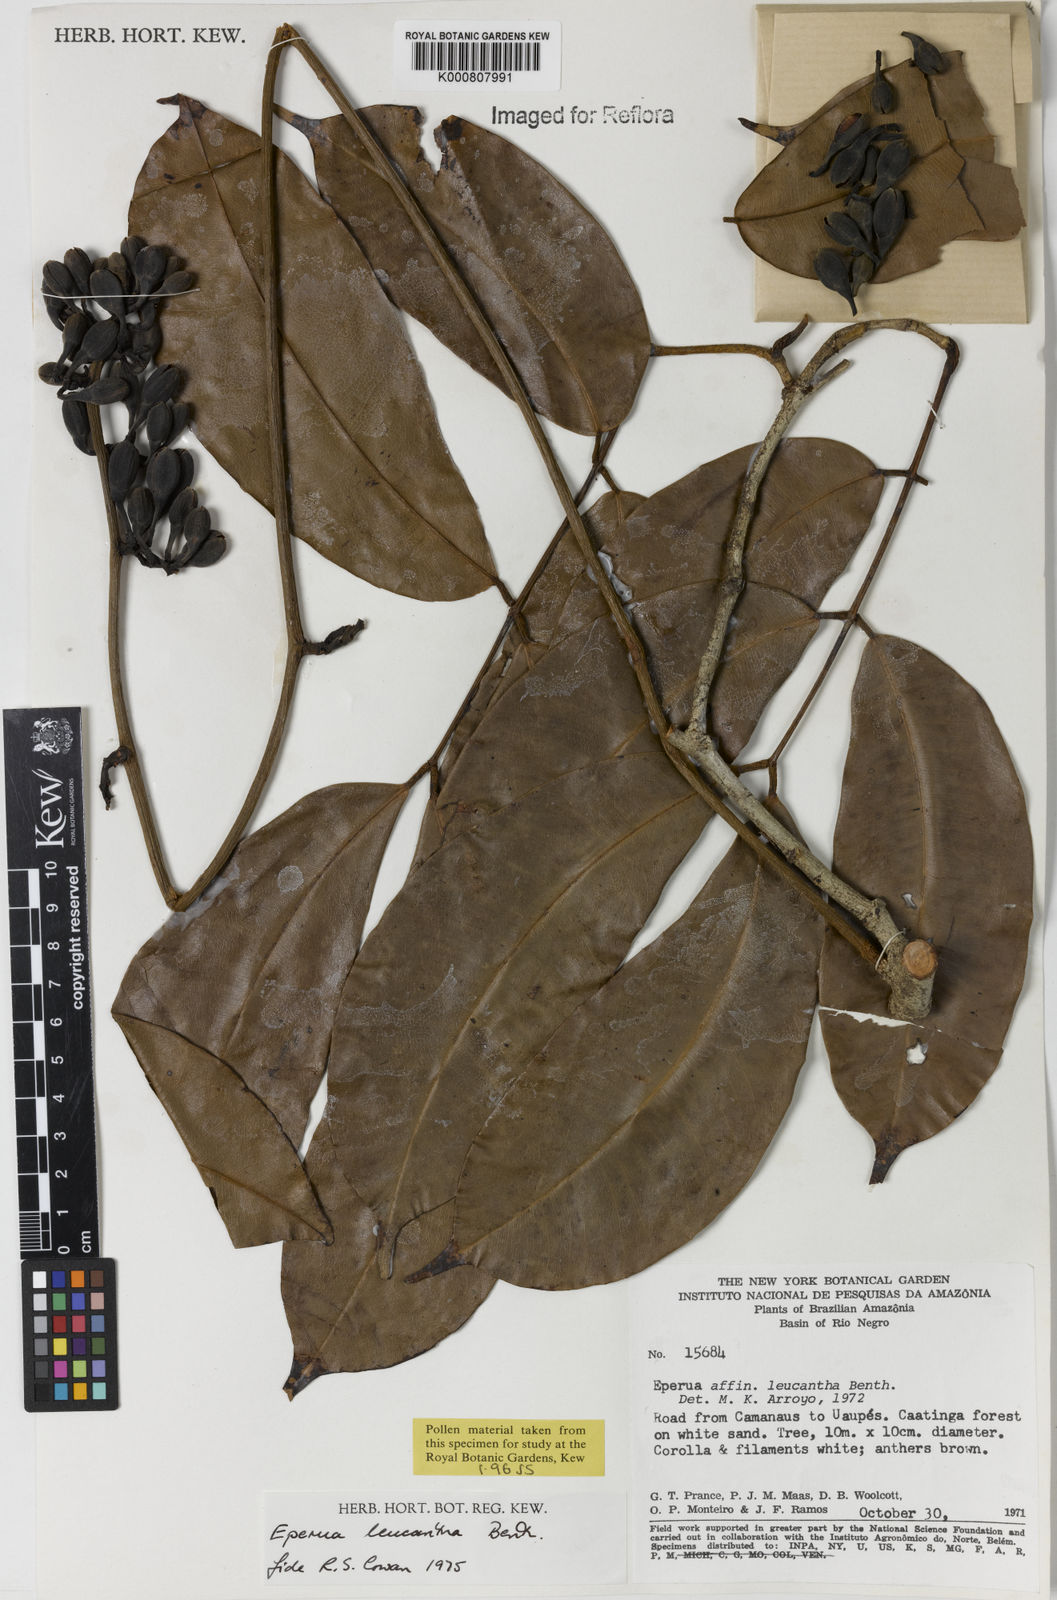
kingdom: Plantae
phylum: Tracheophyta
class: Magnoliopsida
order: Fabales
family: Fabaceae
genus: Eperua
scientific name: Eperua leucantha
